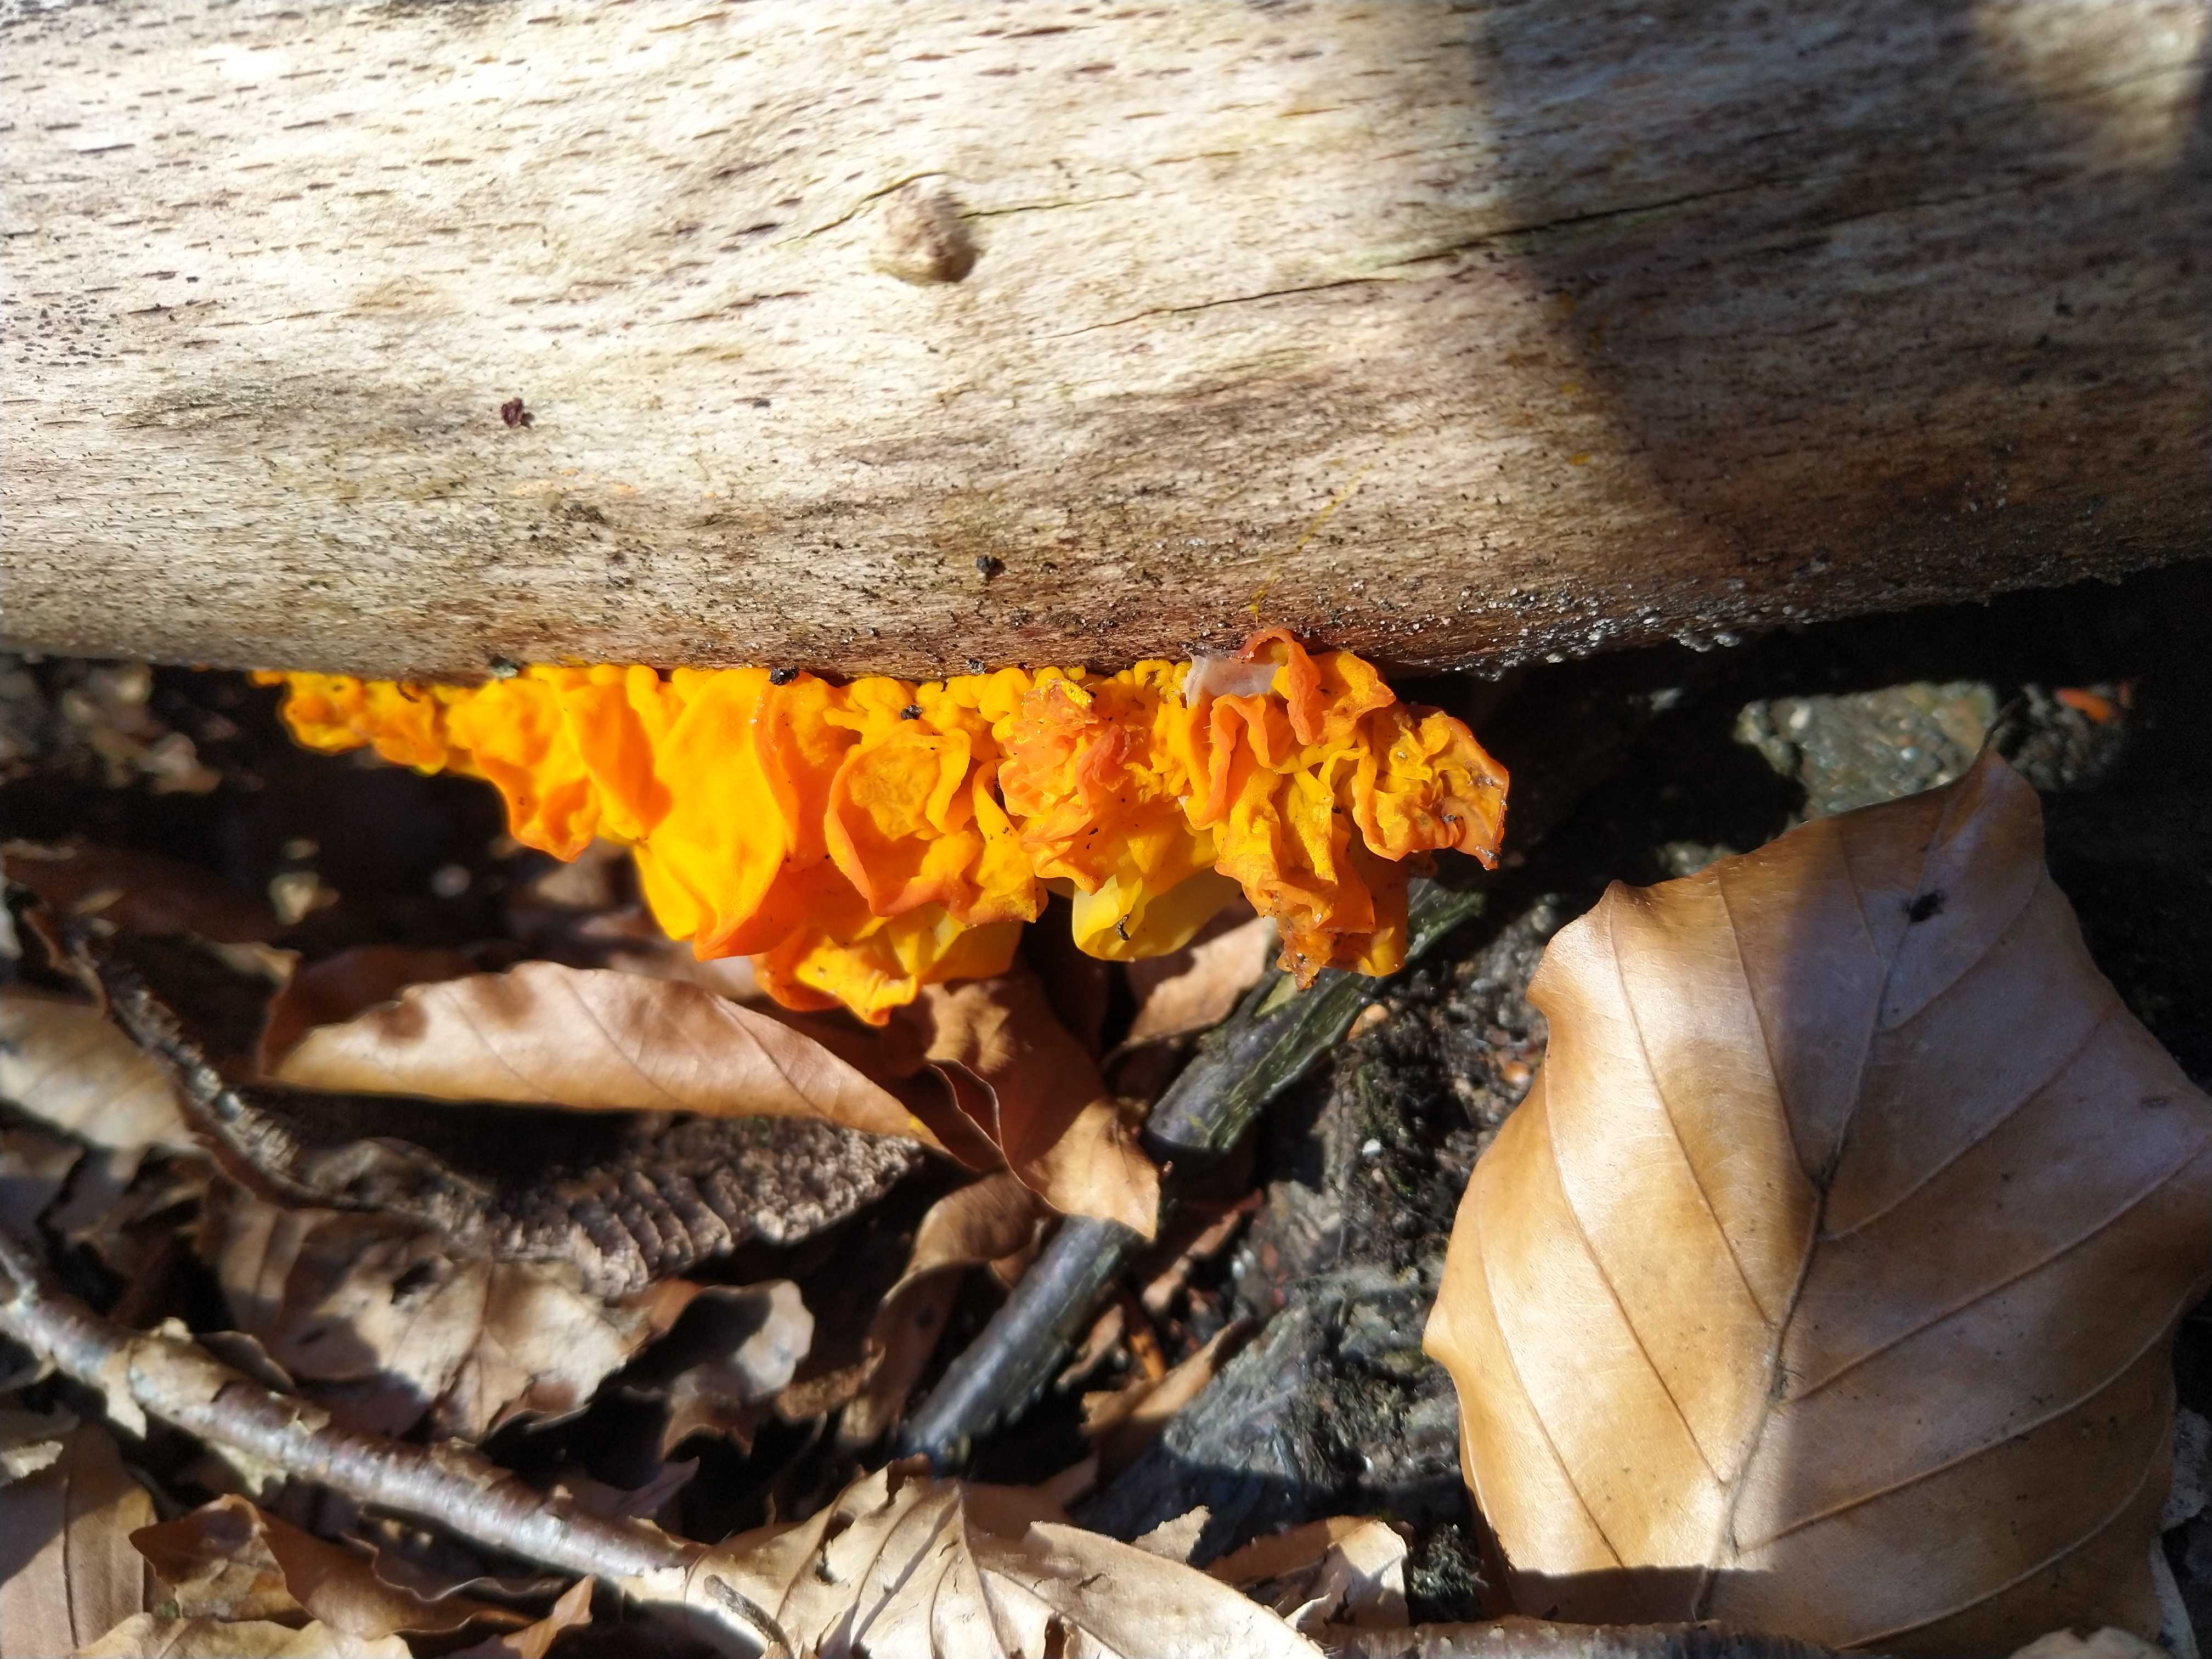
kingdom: Fungi
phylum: Basidiomycota
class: Tremellomycetes
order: Tremellales
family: Tremellaceae
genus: Tremella
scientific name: Tremella mesenterica
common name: gul bævresvamp
